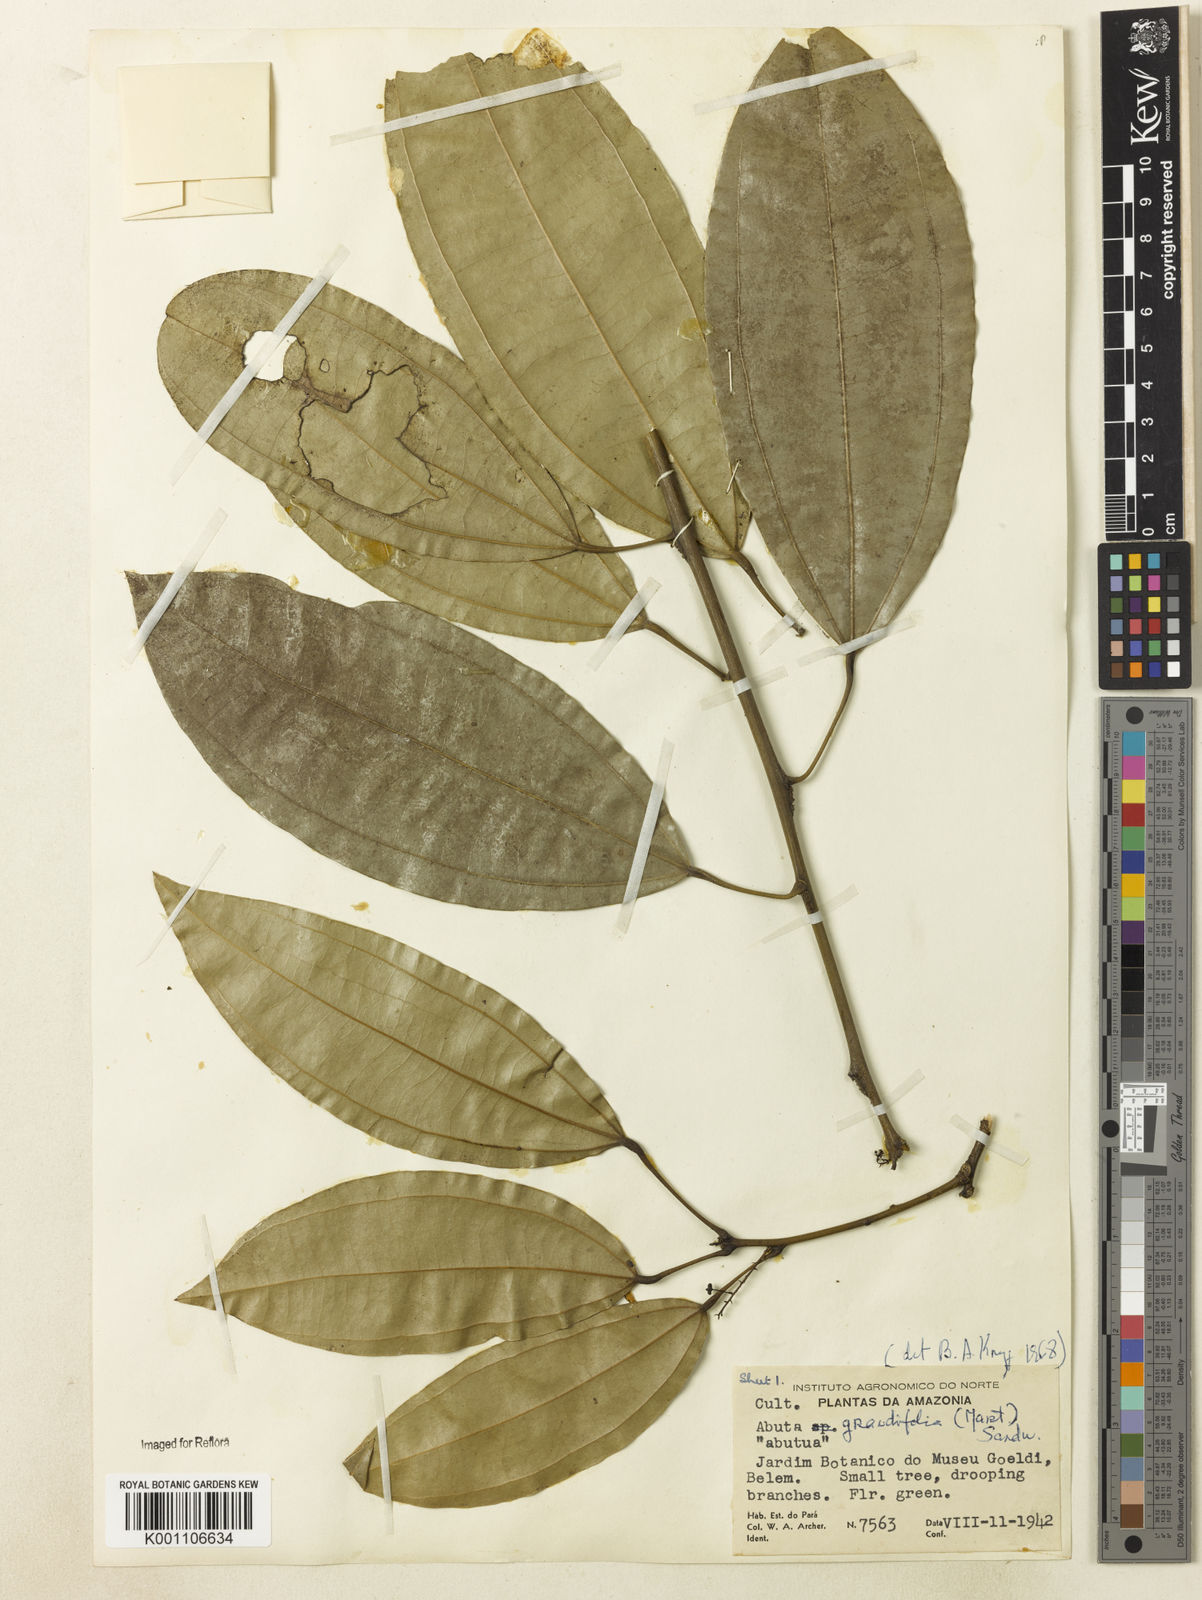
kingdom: Plantae
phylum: Tracheophyta
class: Magnoliopsida
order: Ranunculales
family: Menispermaceae
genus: Abuta
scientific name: Abuta grandifolia
